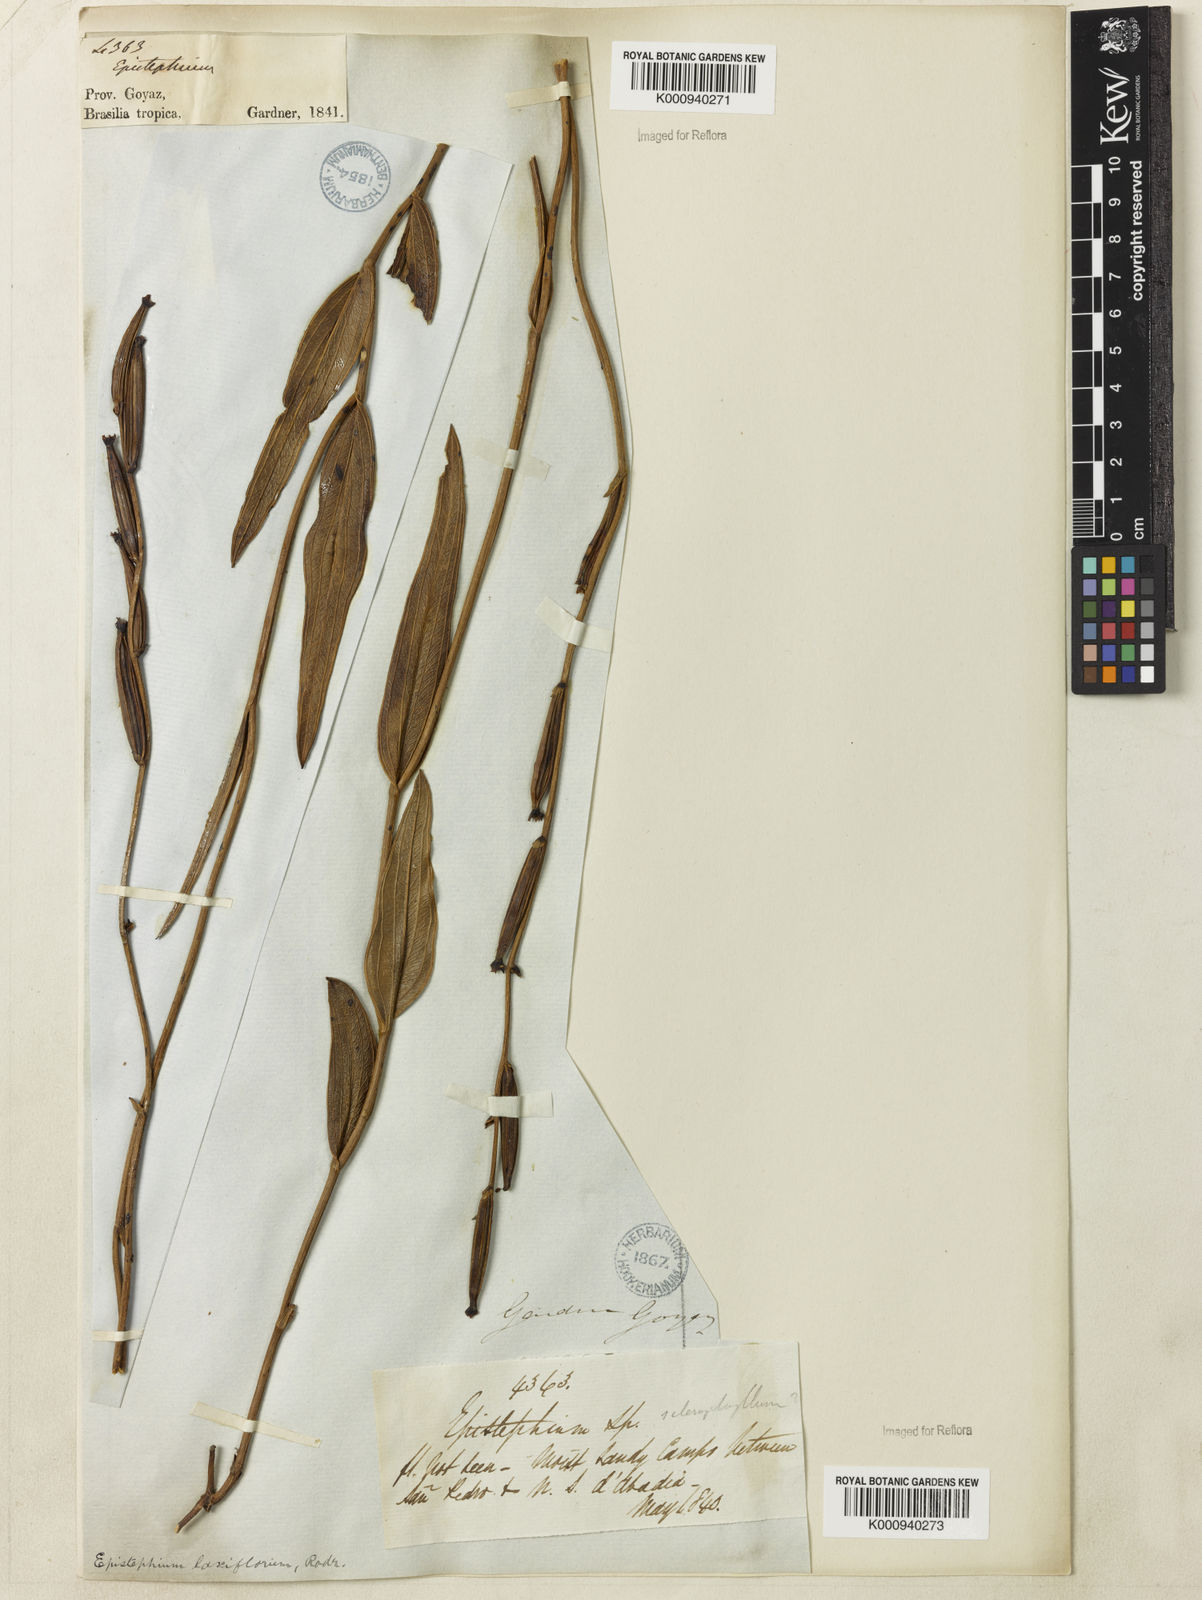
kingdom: Plantae
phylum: Tracheophyta
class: Liliopsida
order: Asparagales
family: Orchidaceae
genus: Epistephium
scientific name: Epistephium laxiflorum
